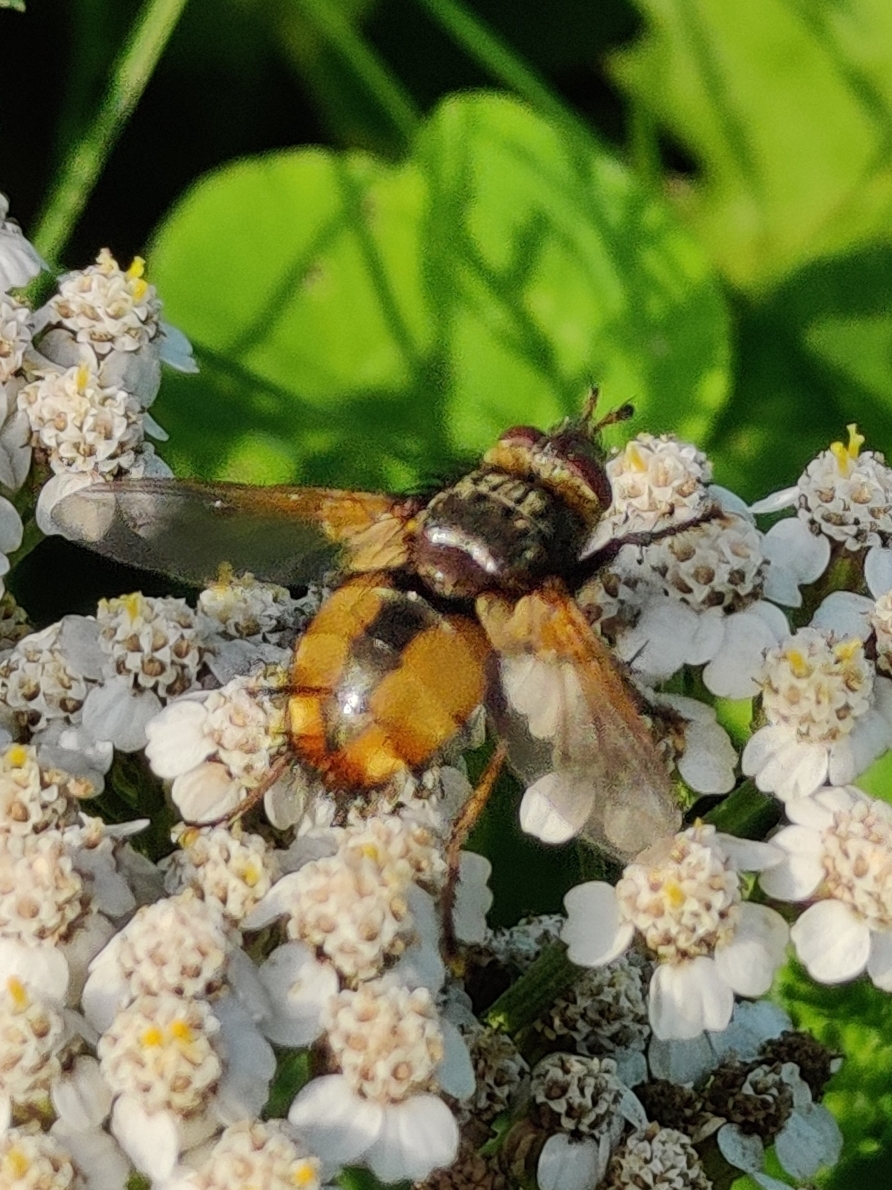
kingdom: Animalia
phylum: Arthropoda
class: Insecta
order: Diptera
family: Tachinidae
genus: Tachina
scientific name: Tachina fera
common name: Mellemfluen oskar
